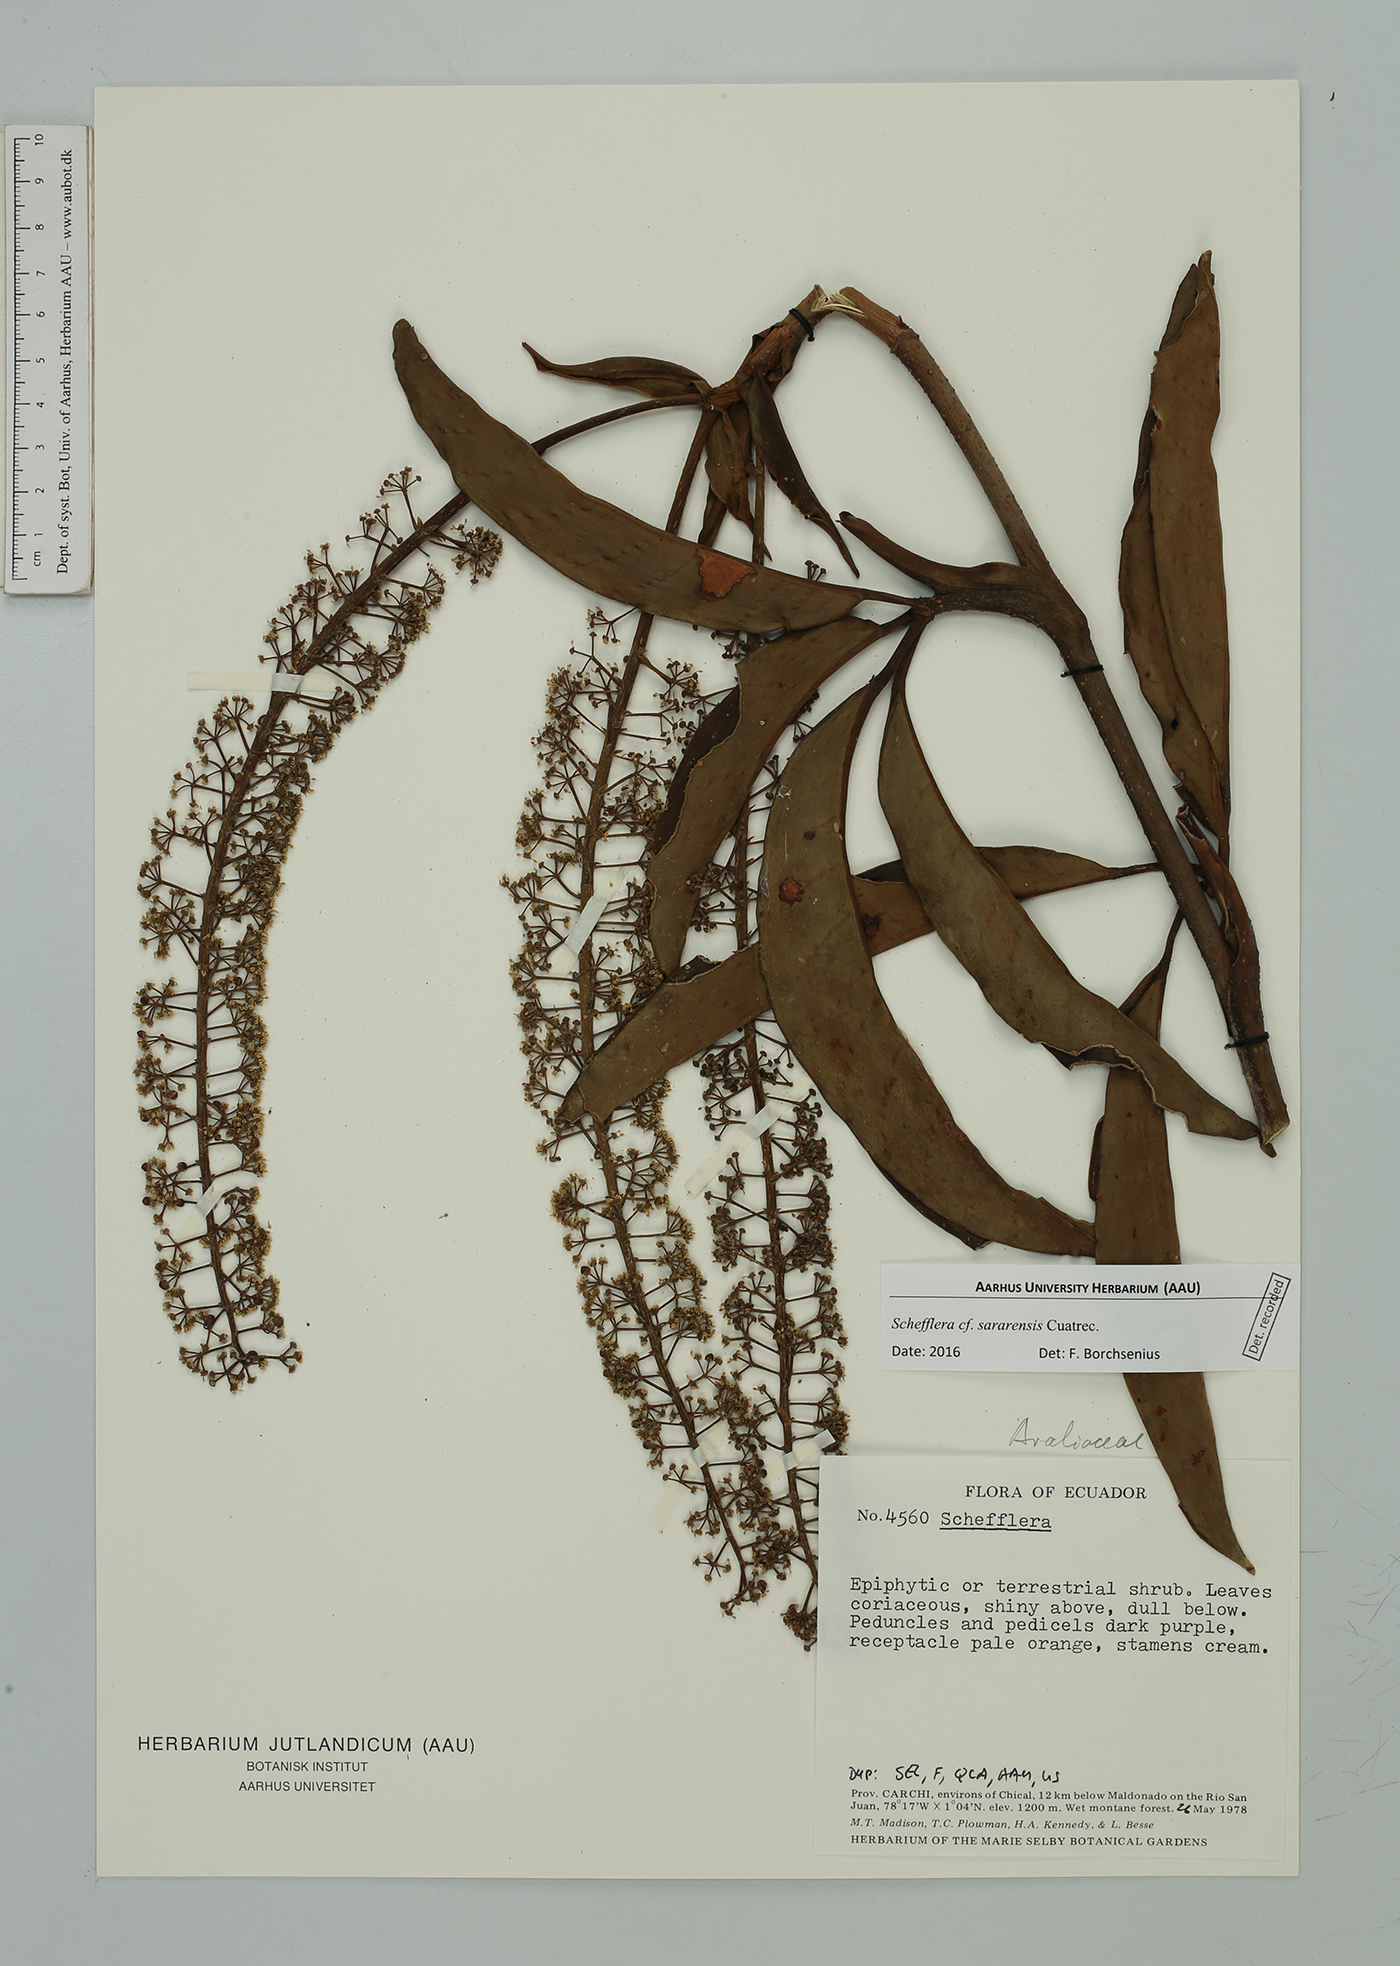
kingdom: Plantae
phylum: Tracheophyta
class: Magnoliopsida
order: Apiales
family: Araliaceae
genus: Sciodaphyllum
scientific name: Sciodaphyllum
